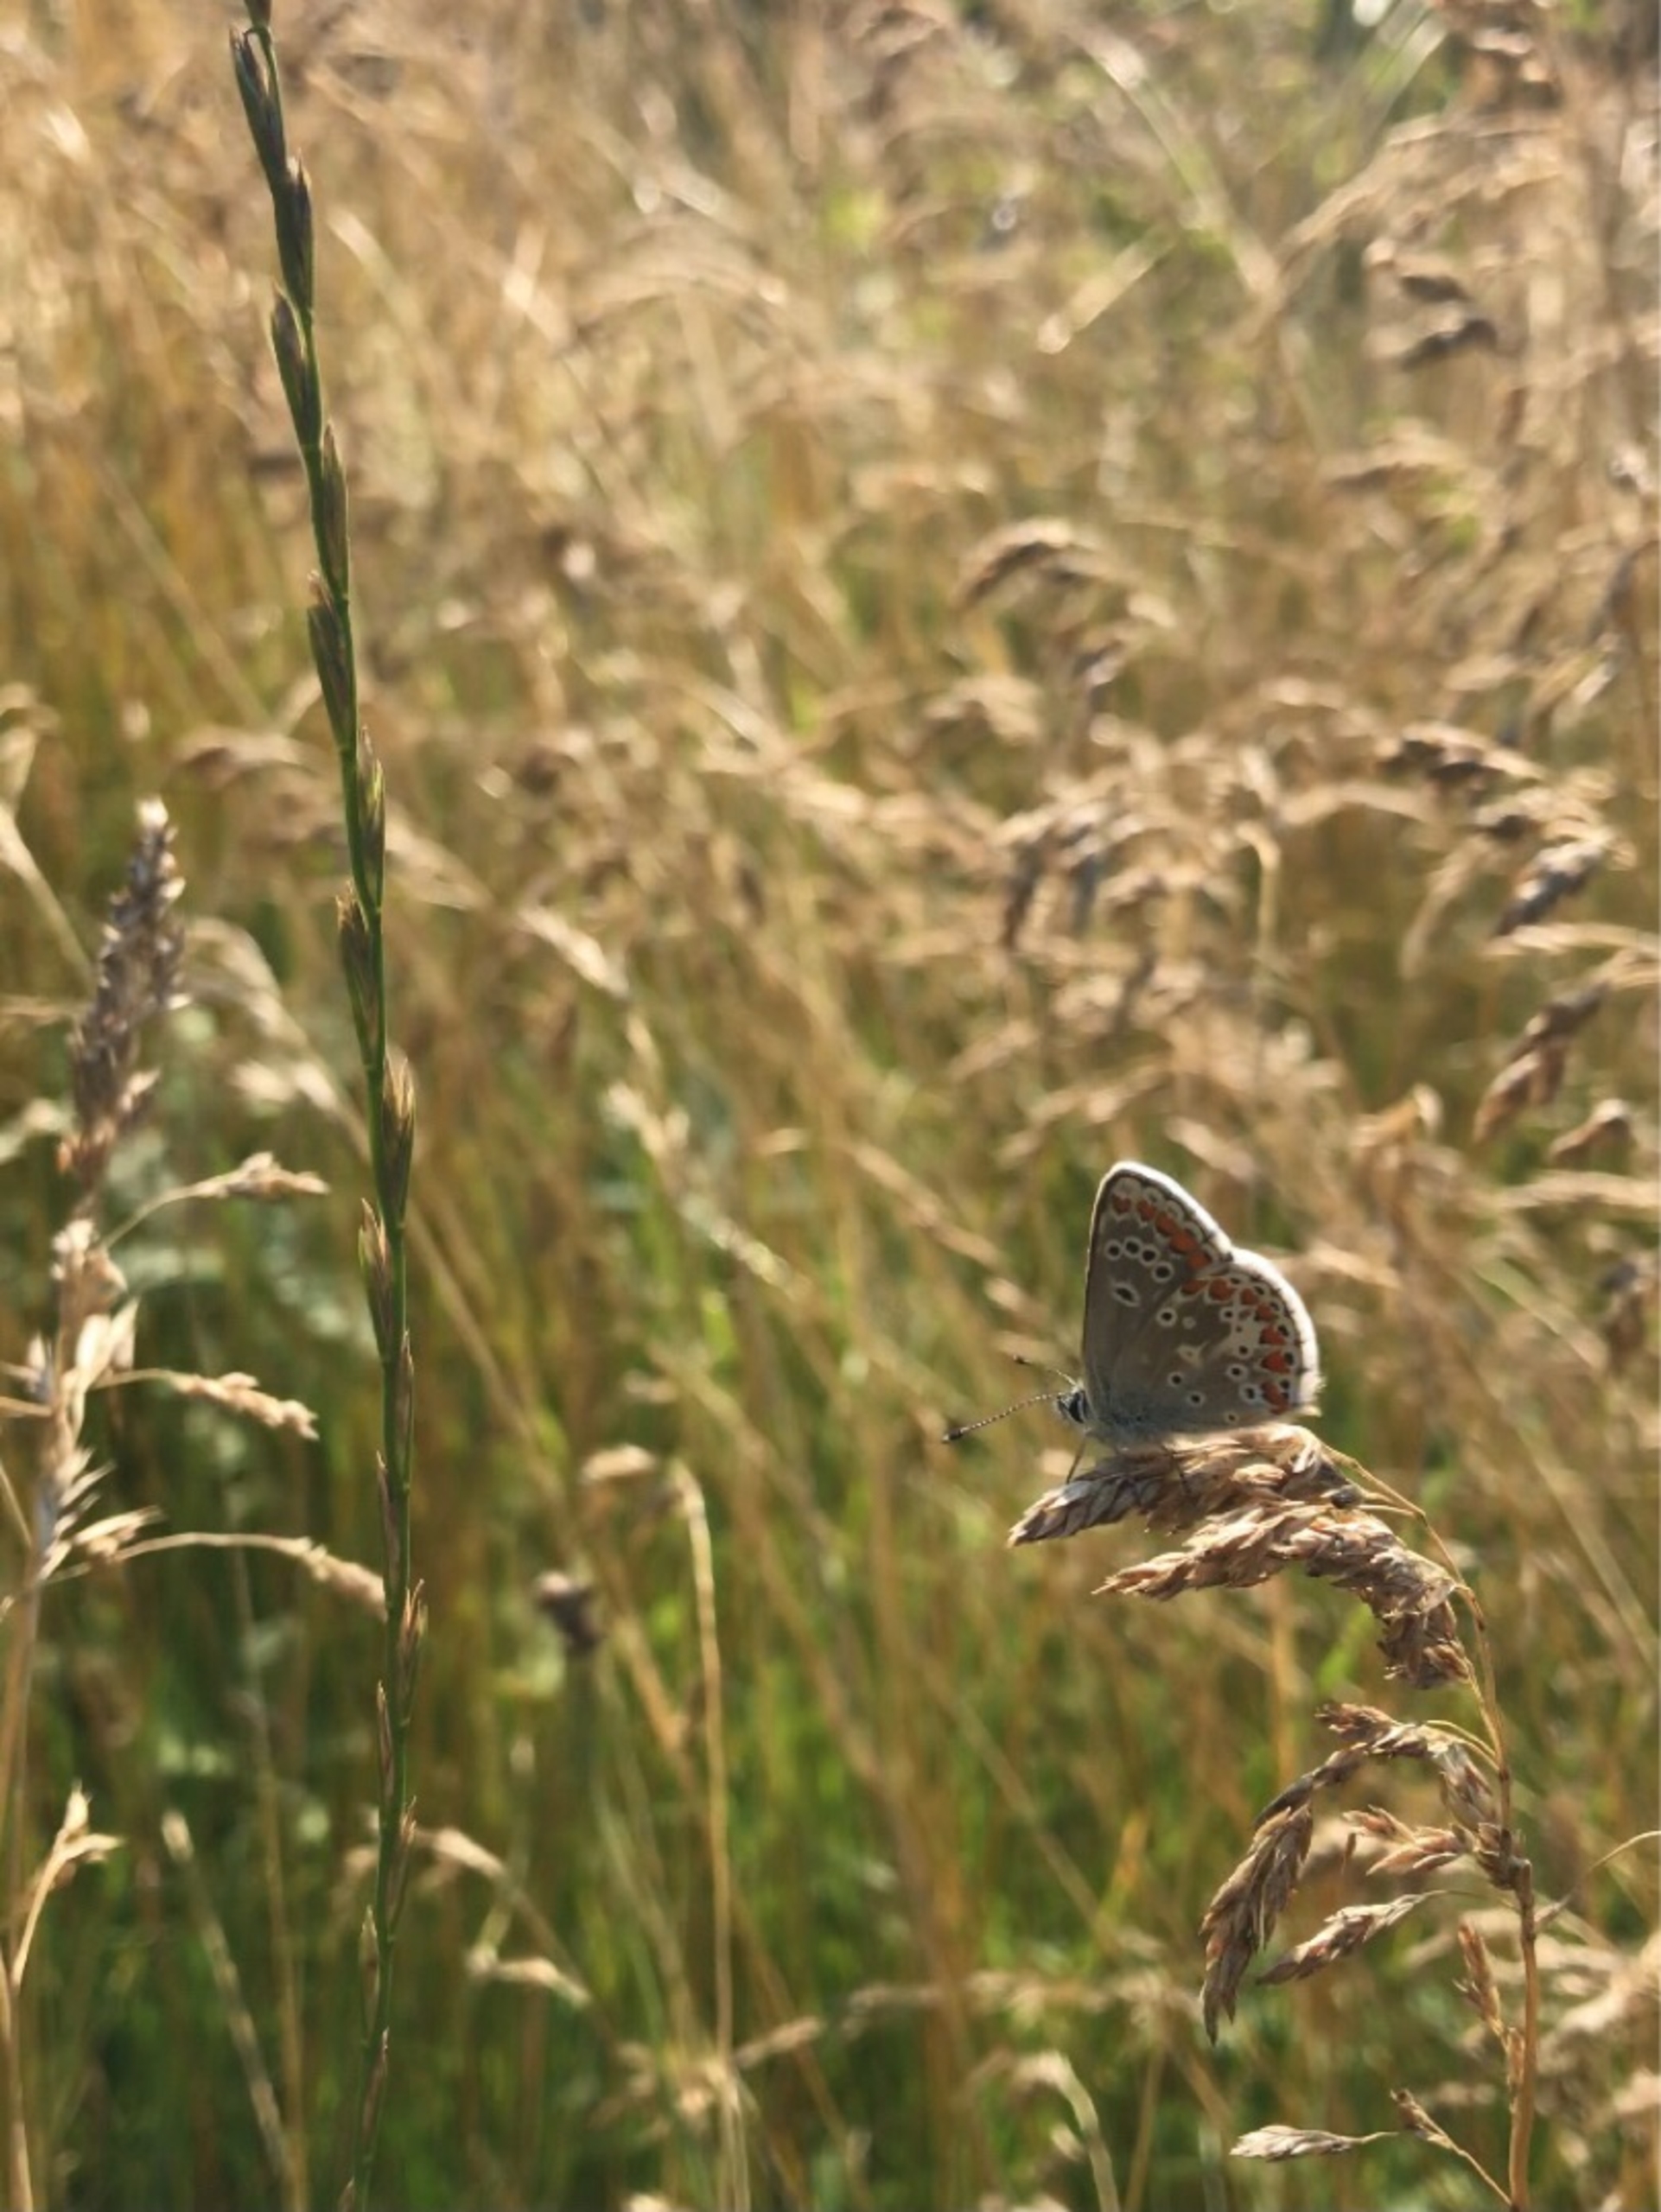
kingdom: Animalia
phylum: Arthropoda
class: Insecta
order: Lepidoptera
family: Lycaenidae
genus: Polyommatus
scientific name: Polyommatus icarus
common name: Almindelig blåfugl
